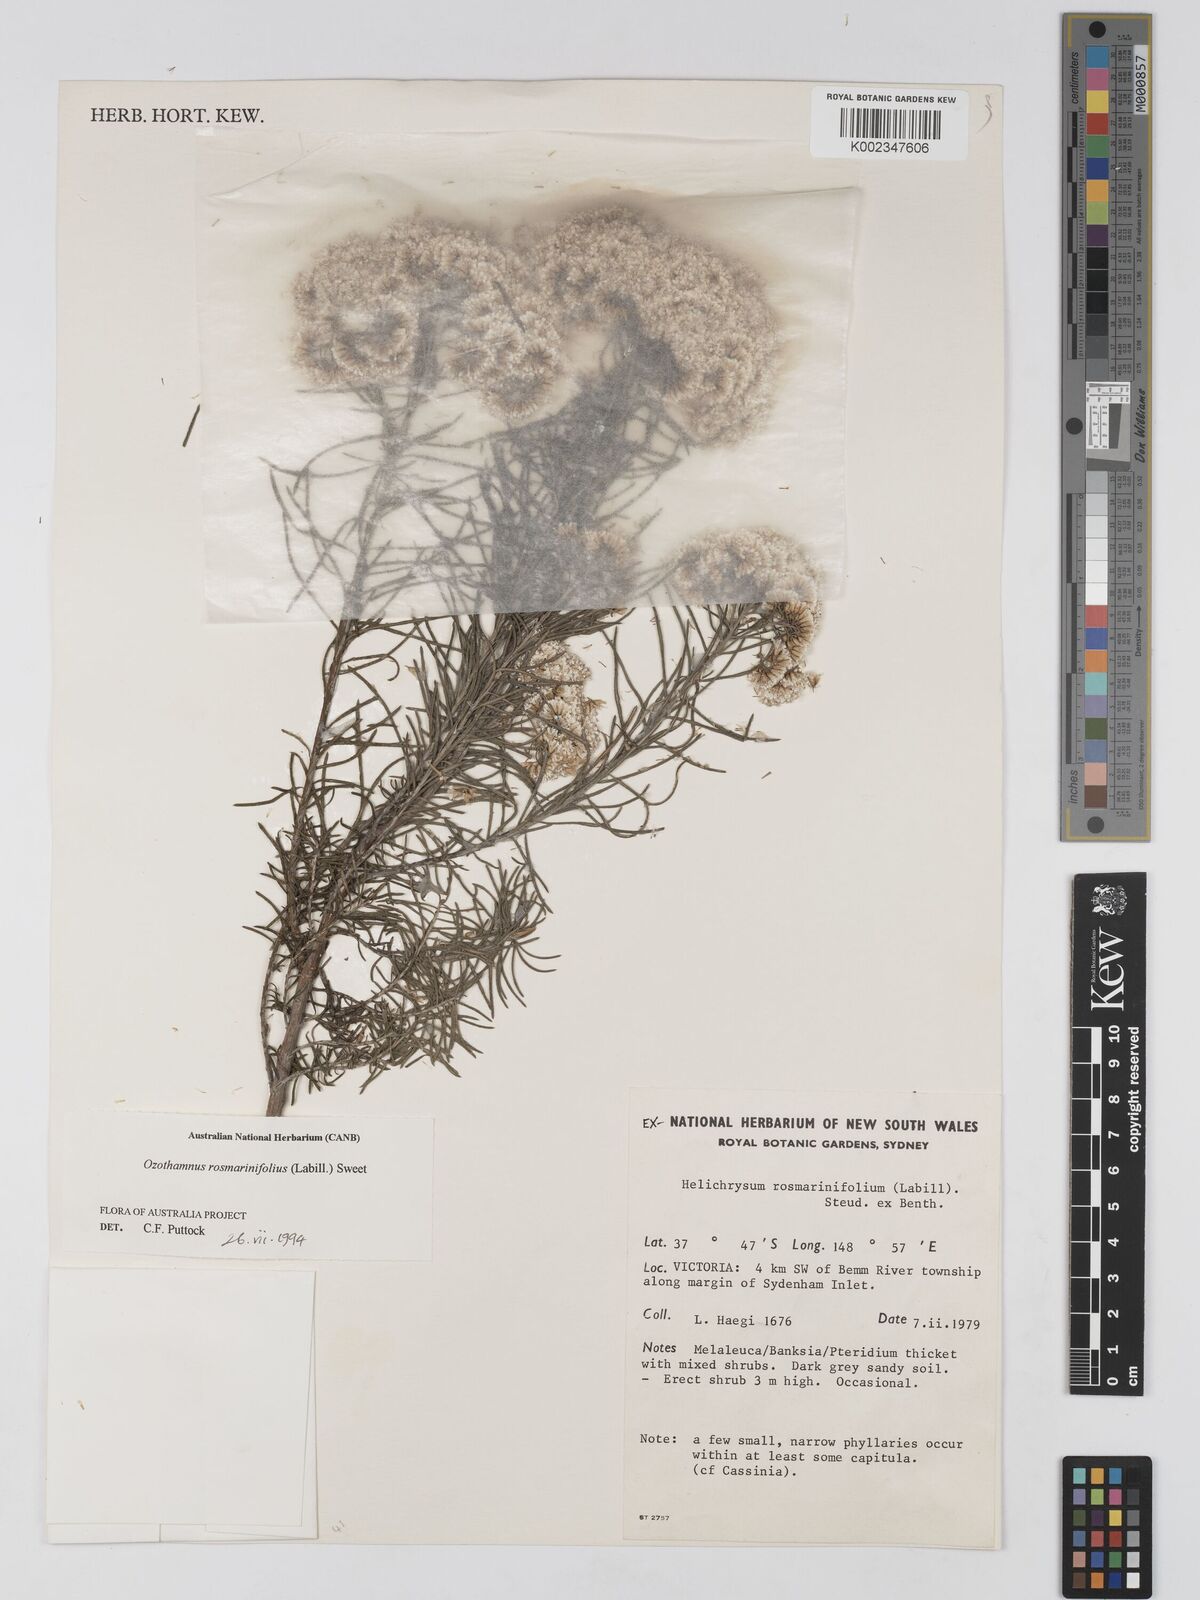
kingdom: Plantae
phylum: Tracheophyta
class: Magnoliopsida
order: Asterales
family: Asteraceae
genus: Ozothamnus
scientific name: Ozothamnus rosmarinifolius
